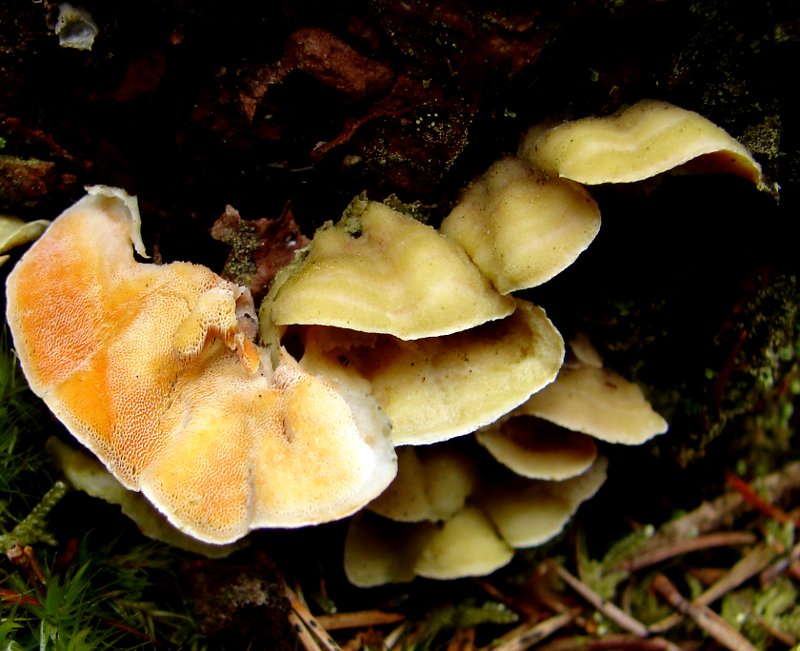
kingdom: Fungi
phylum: Basidiomycota
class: Agaricomycetes
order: Polyporales
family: Incrustoporiaceae
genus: Skeletocutis
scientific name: Skeletocutis amorpha
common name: orange krystalporesvamp
